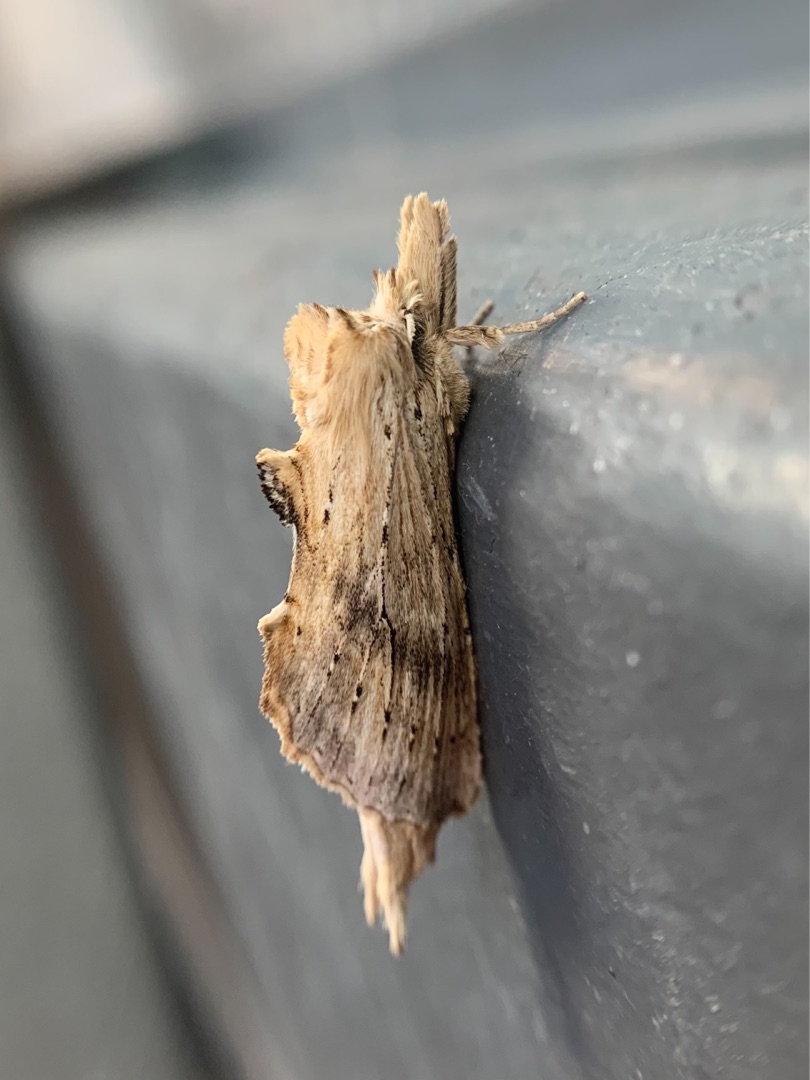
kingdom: Animalia
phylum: Arthropoda
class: Insecta
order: Lepidoptera
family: Notodontidae
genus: Pterostoma
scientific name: Pterostoma palpina
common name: Palpetandspinder
